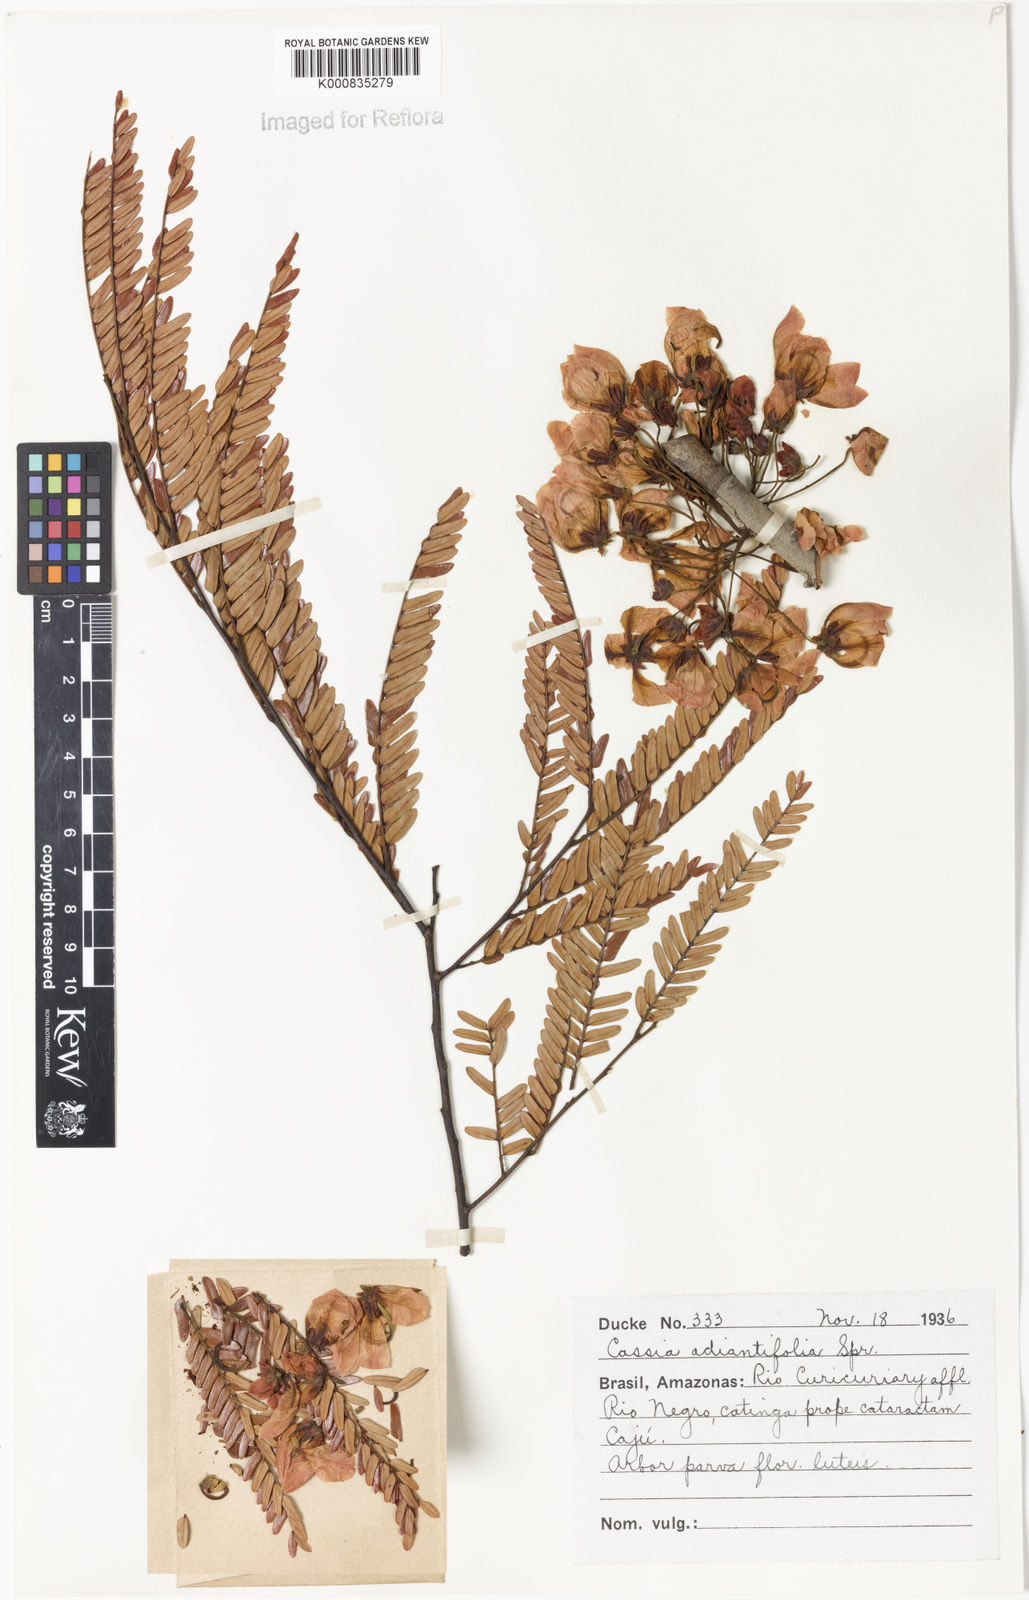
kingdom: Plantae
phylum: Tracheophyta
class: Magnoliopsida
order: Fabales
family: Fabaceae
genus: Chamaecrista
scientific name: Chamaecrista adiantifolia
